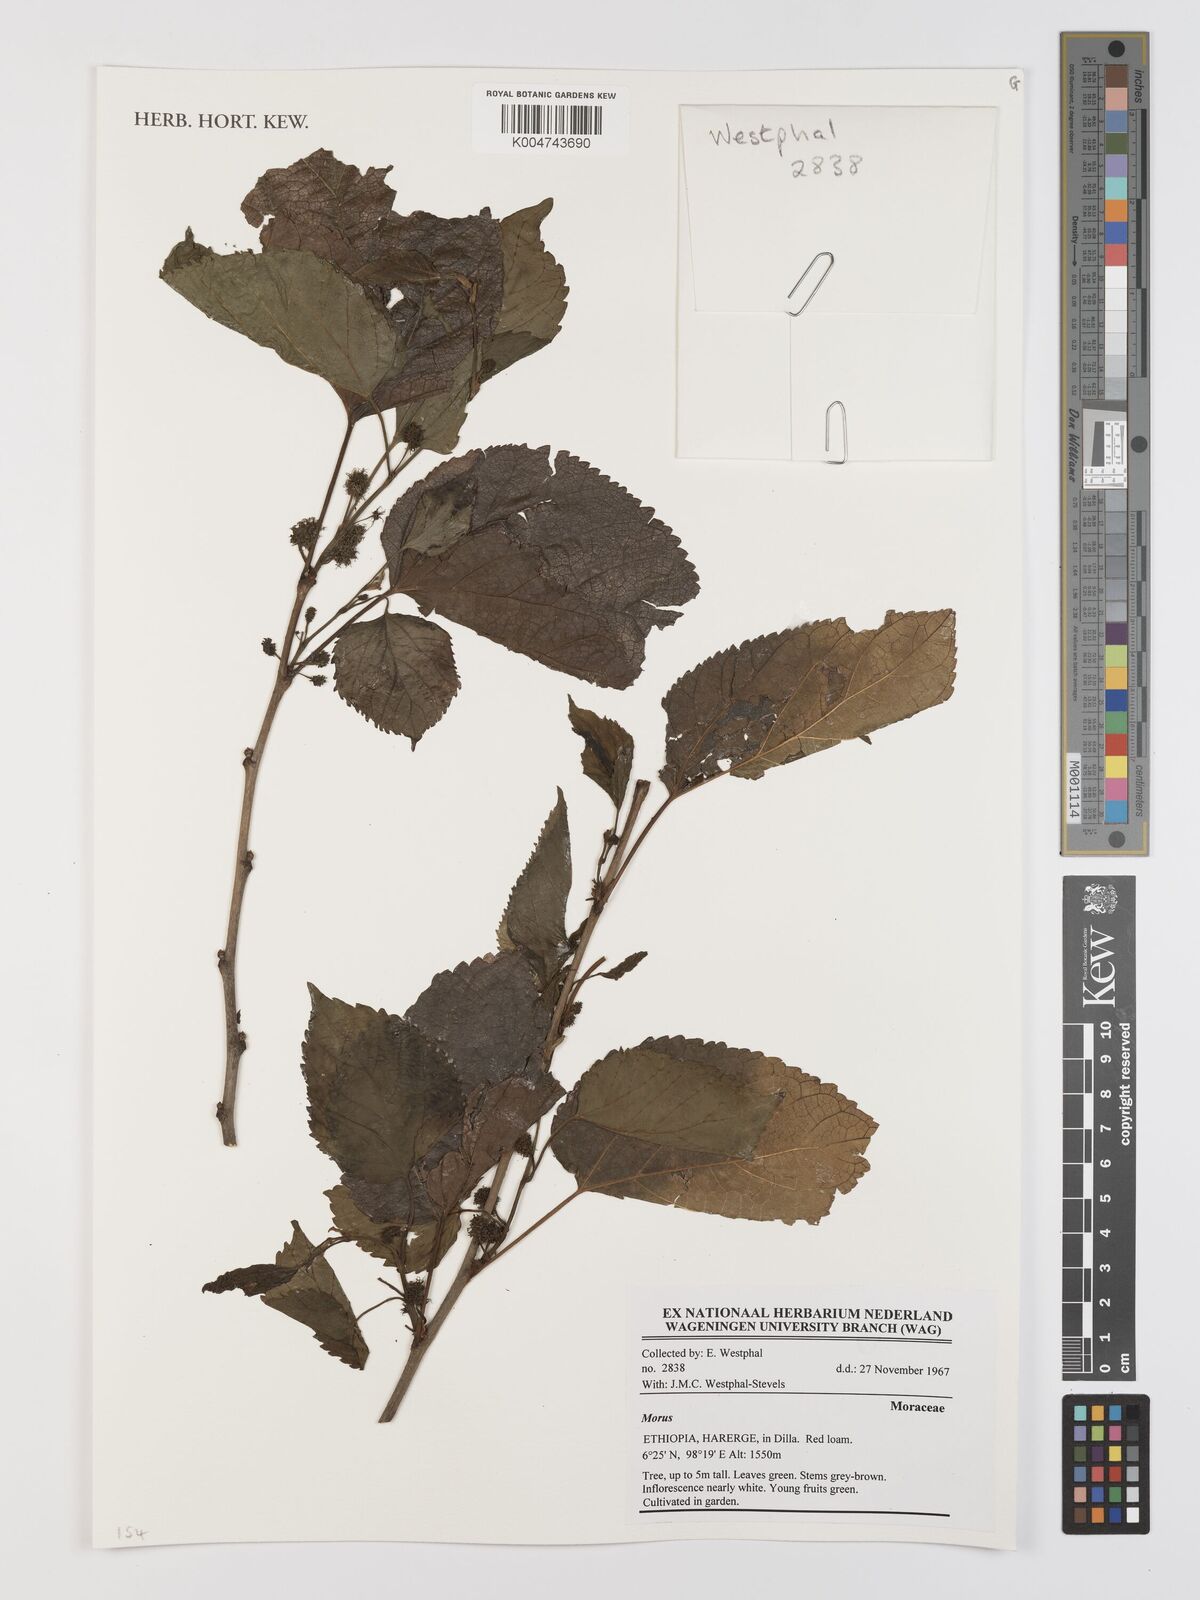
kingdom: Plantae
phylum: Tracheophyta
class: Magnoliopsida
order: Rosales
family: Moraceae
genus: Morus
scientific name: Morus
